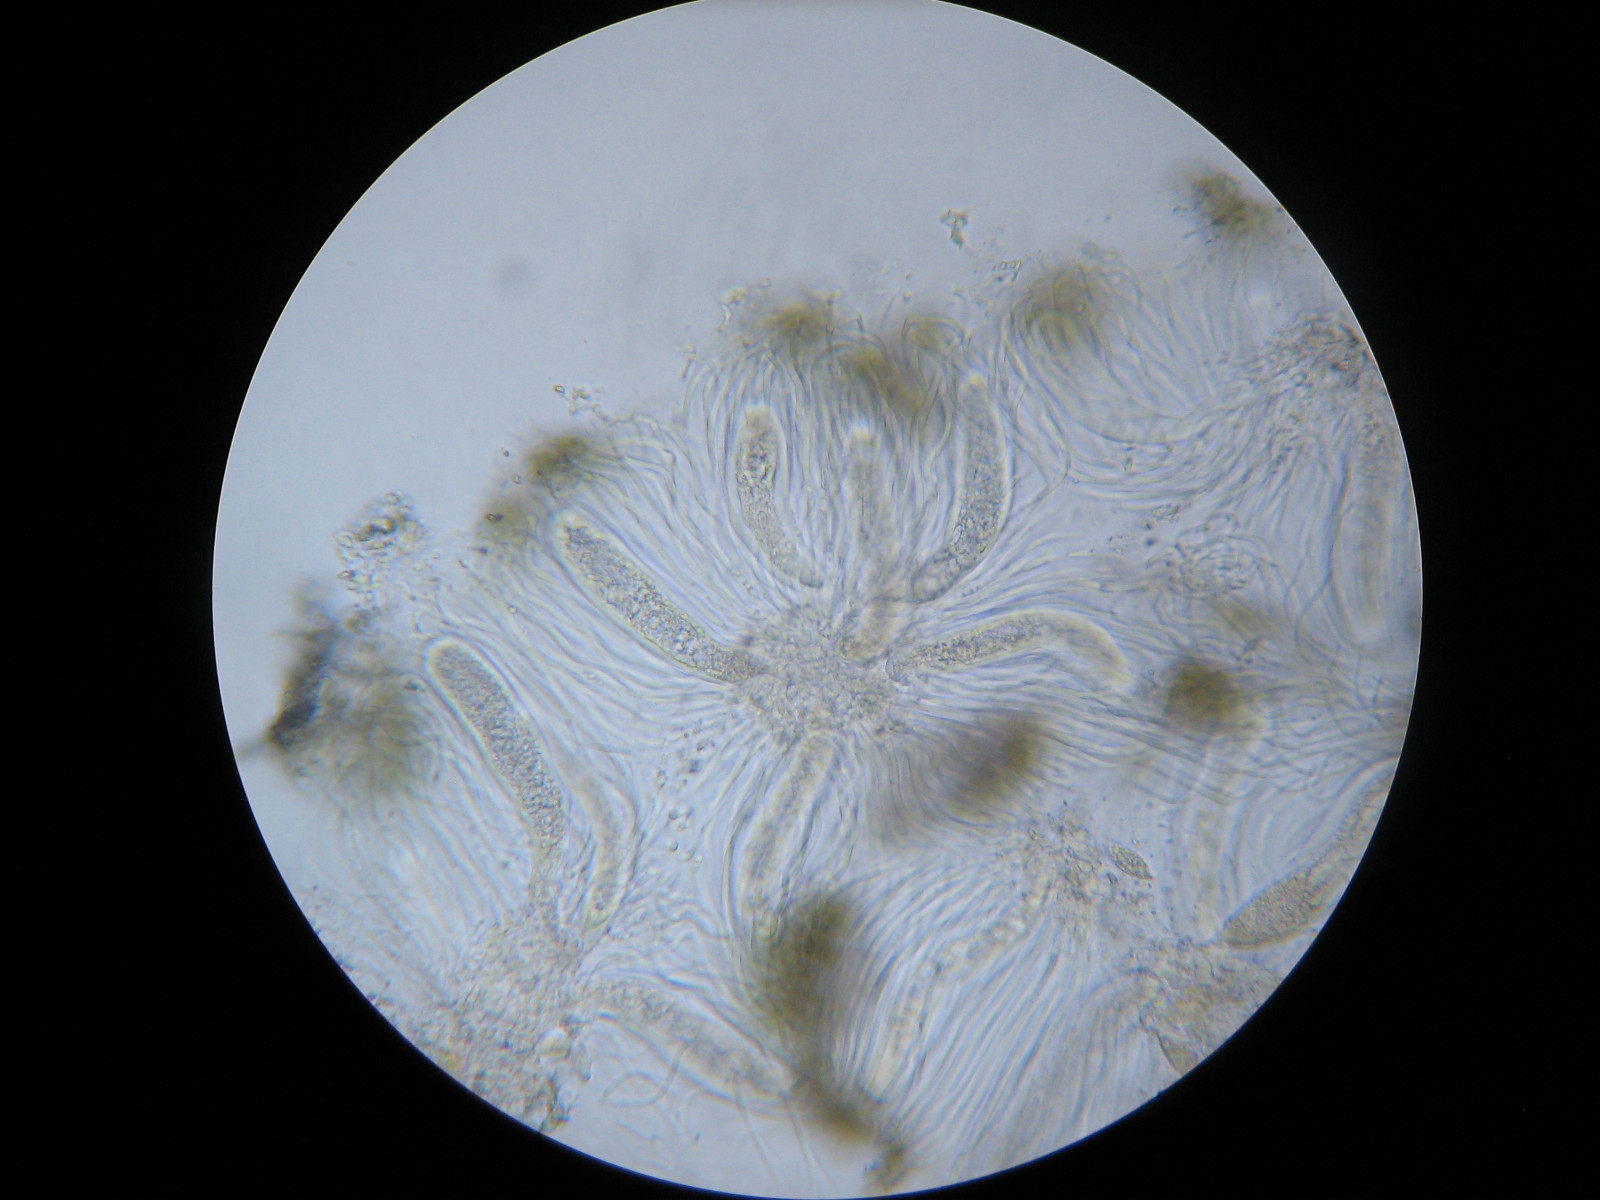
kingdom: Fungi
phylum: Ascomycota
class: Lecanoromycetes
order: Ostropales
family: Phlyctidaceae
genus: Phlyctis
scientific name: Phlyctis agelaea
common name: kønnet sølvlav
